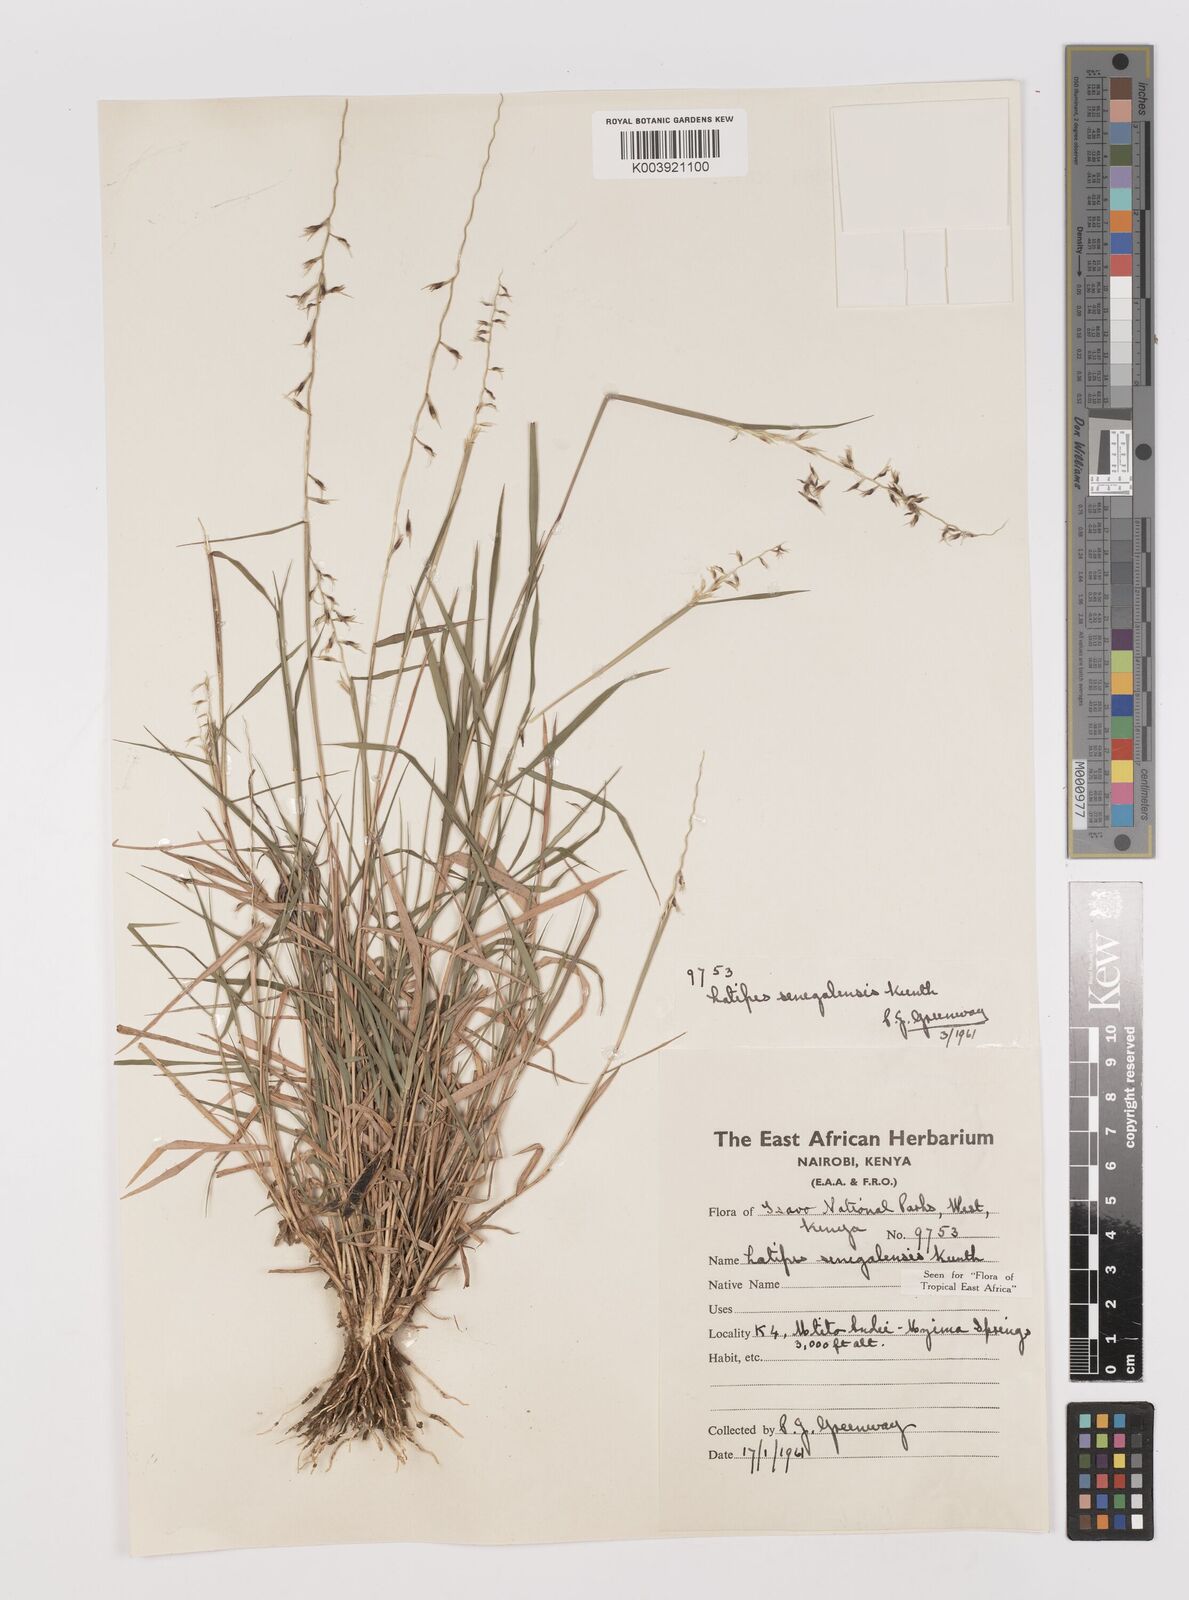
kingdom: Plantae
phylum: Tracheophyta
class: Liliopsida
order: Poales
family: Poaceae
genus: Leptothrium
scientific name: Leptothrium senegalense
